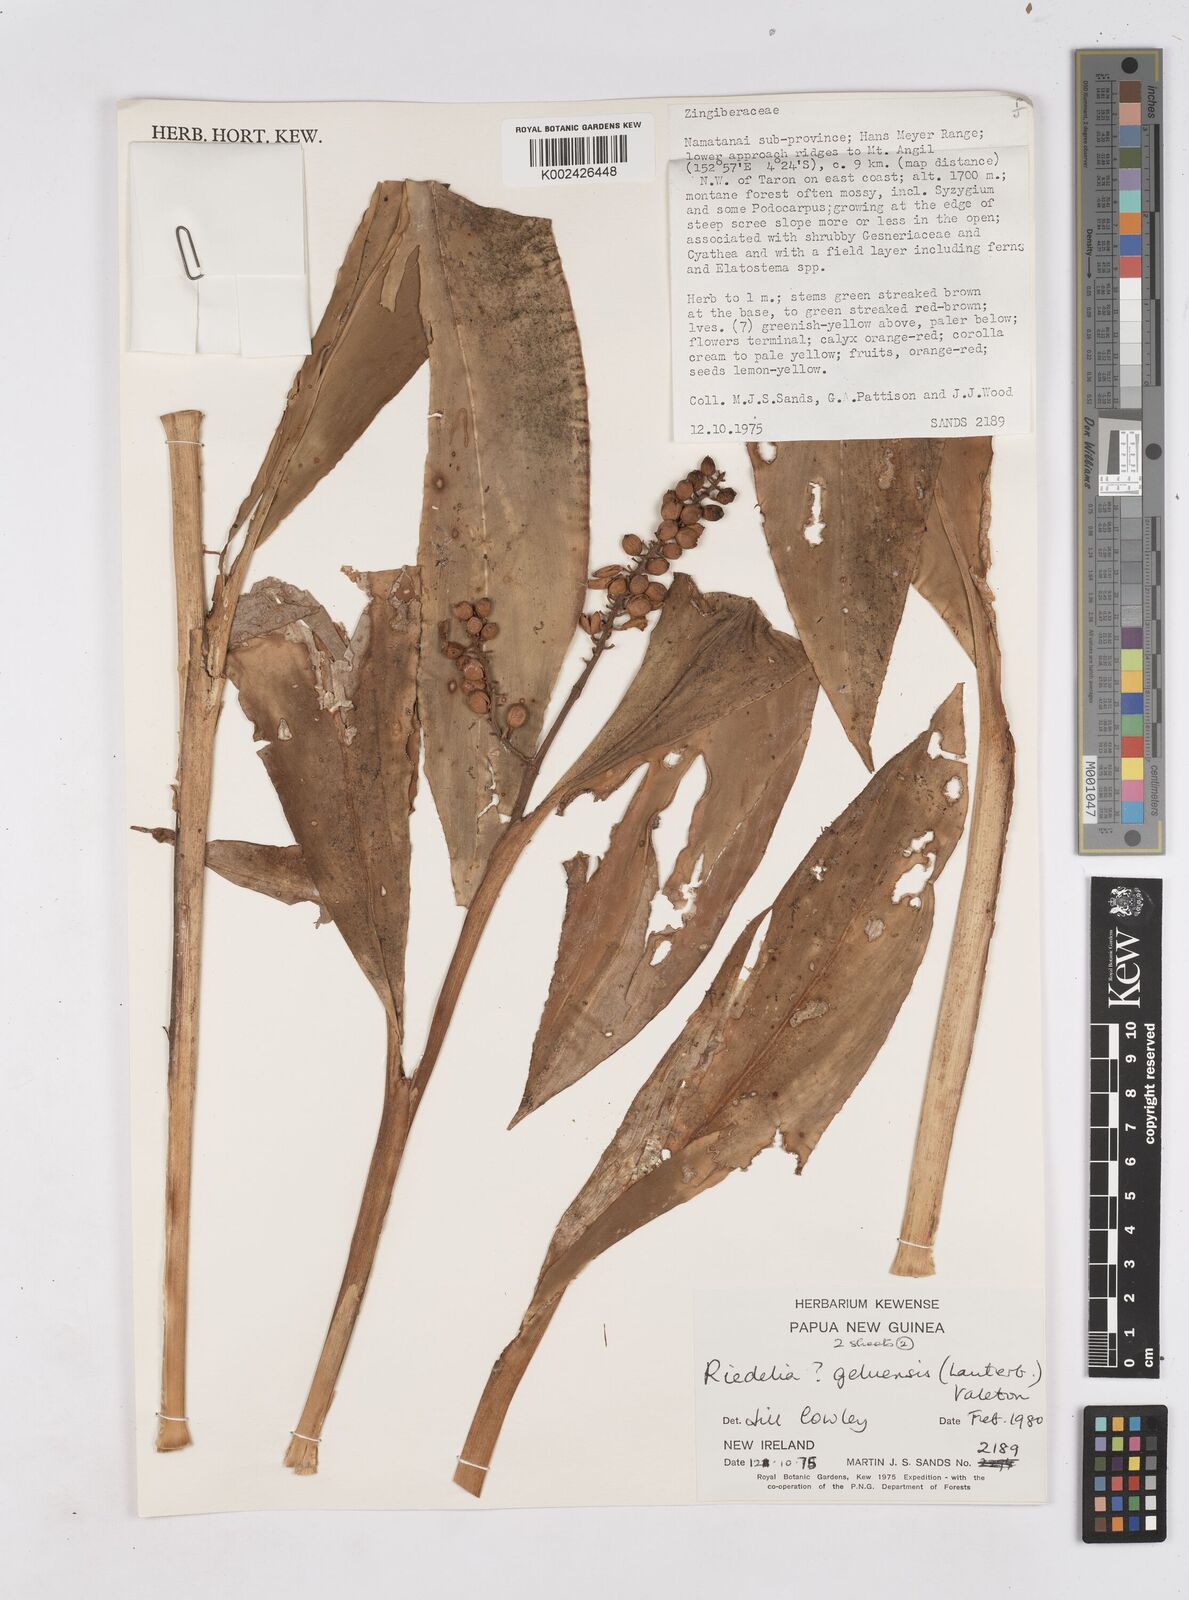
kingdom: Plantae
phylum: Tracheophyta
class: Liliopsida
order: Zingiberales
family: Zingiberaceae
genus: Riedelia
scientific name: Riedelia geluensis
